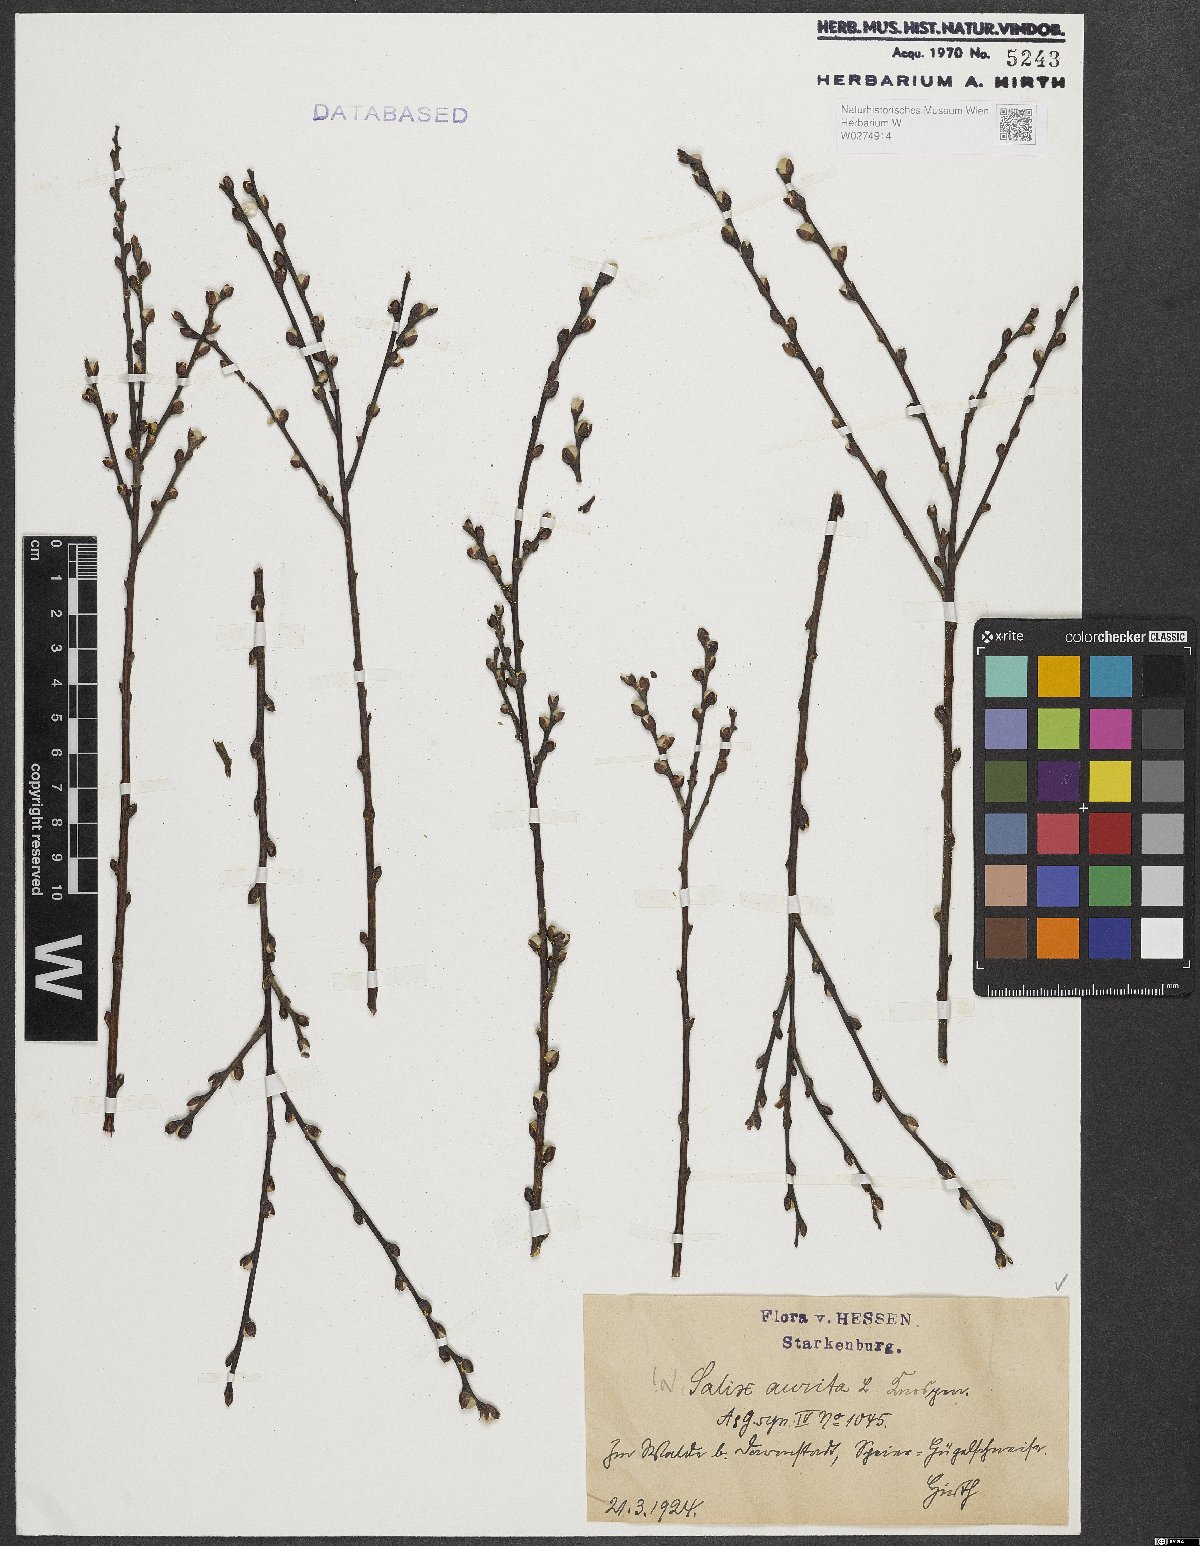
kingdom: Plantae
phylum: Tracheophyta
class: Magnoliopsida
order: Malpighiales
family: Salicaceae
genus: Salix
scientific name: Salix aurita
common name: Eared willow
